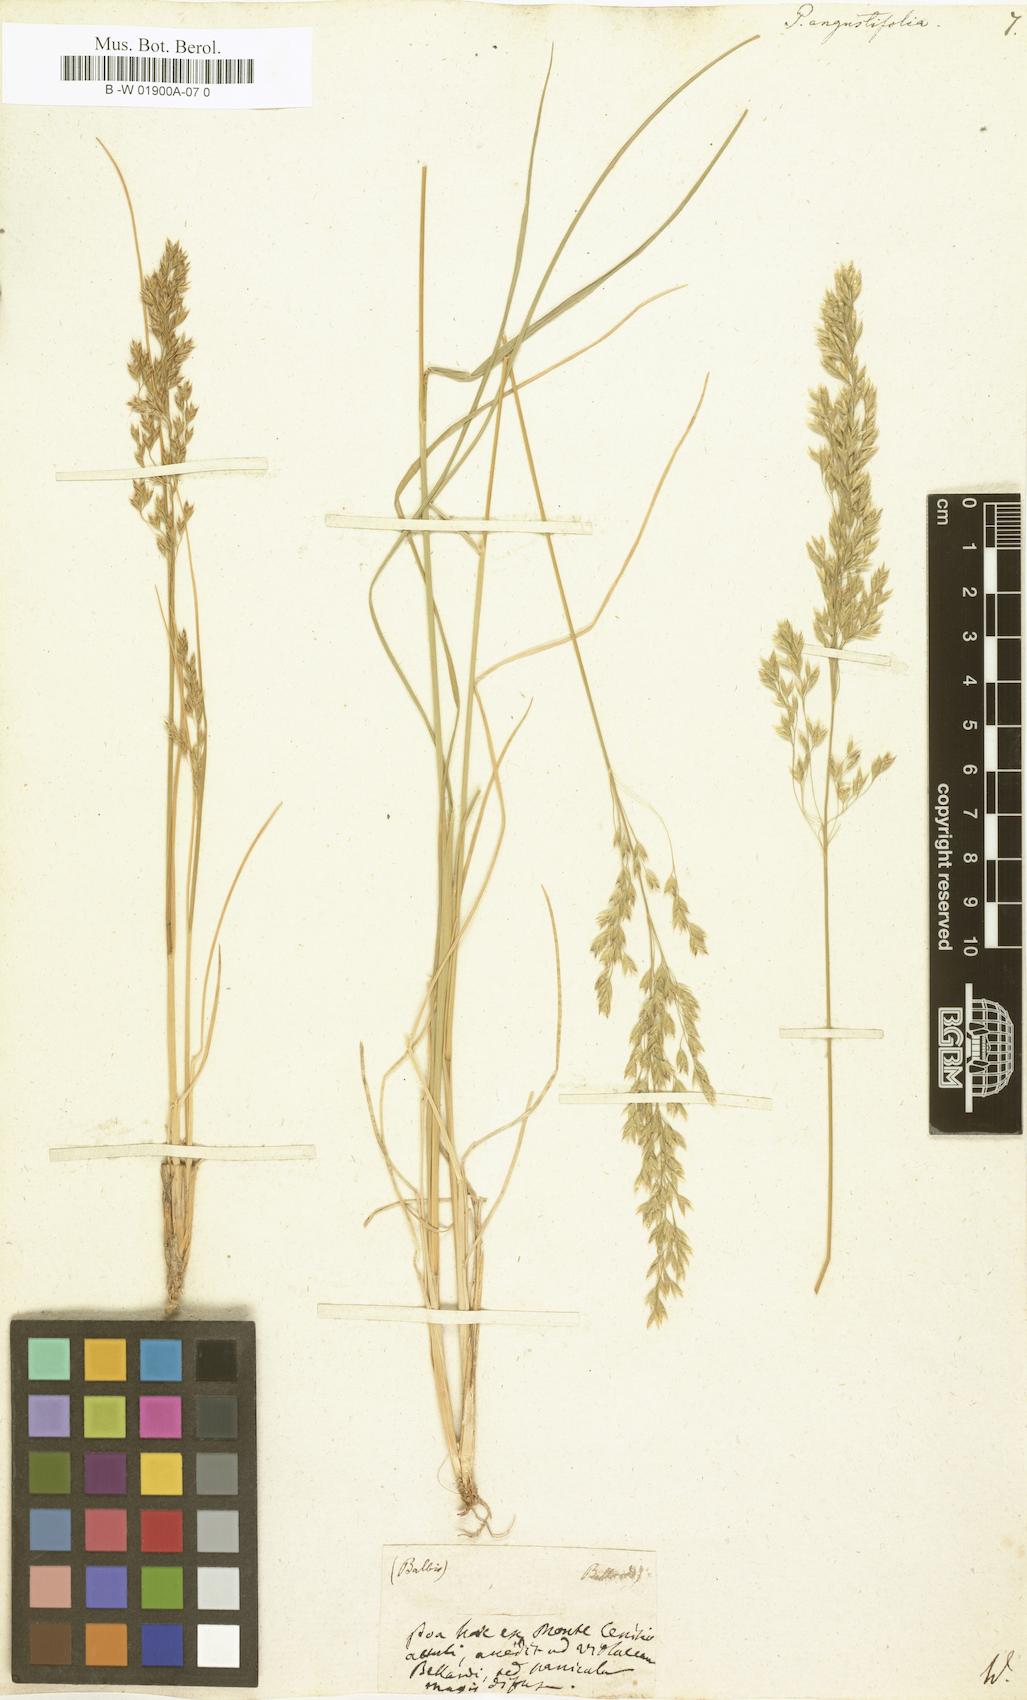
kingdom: Plantae
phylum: Tracheophyta
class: Liliopsida
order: Poales
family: Poaceae
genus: Poa
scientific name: Poa pratensis
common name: Kentucky bluegrass
